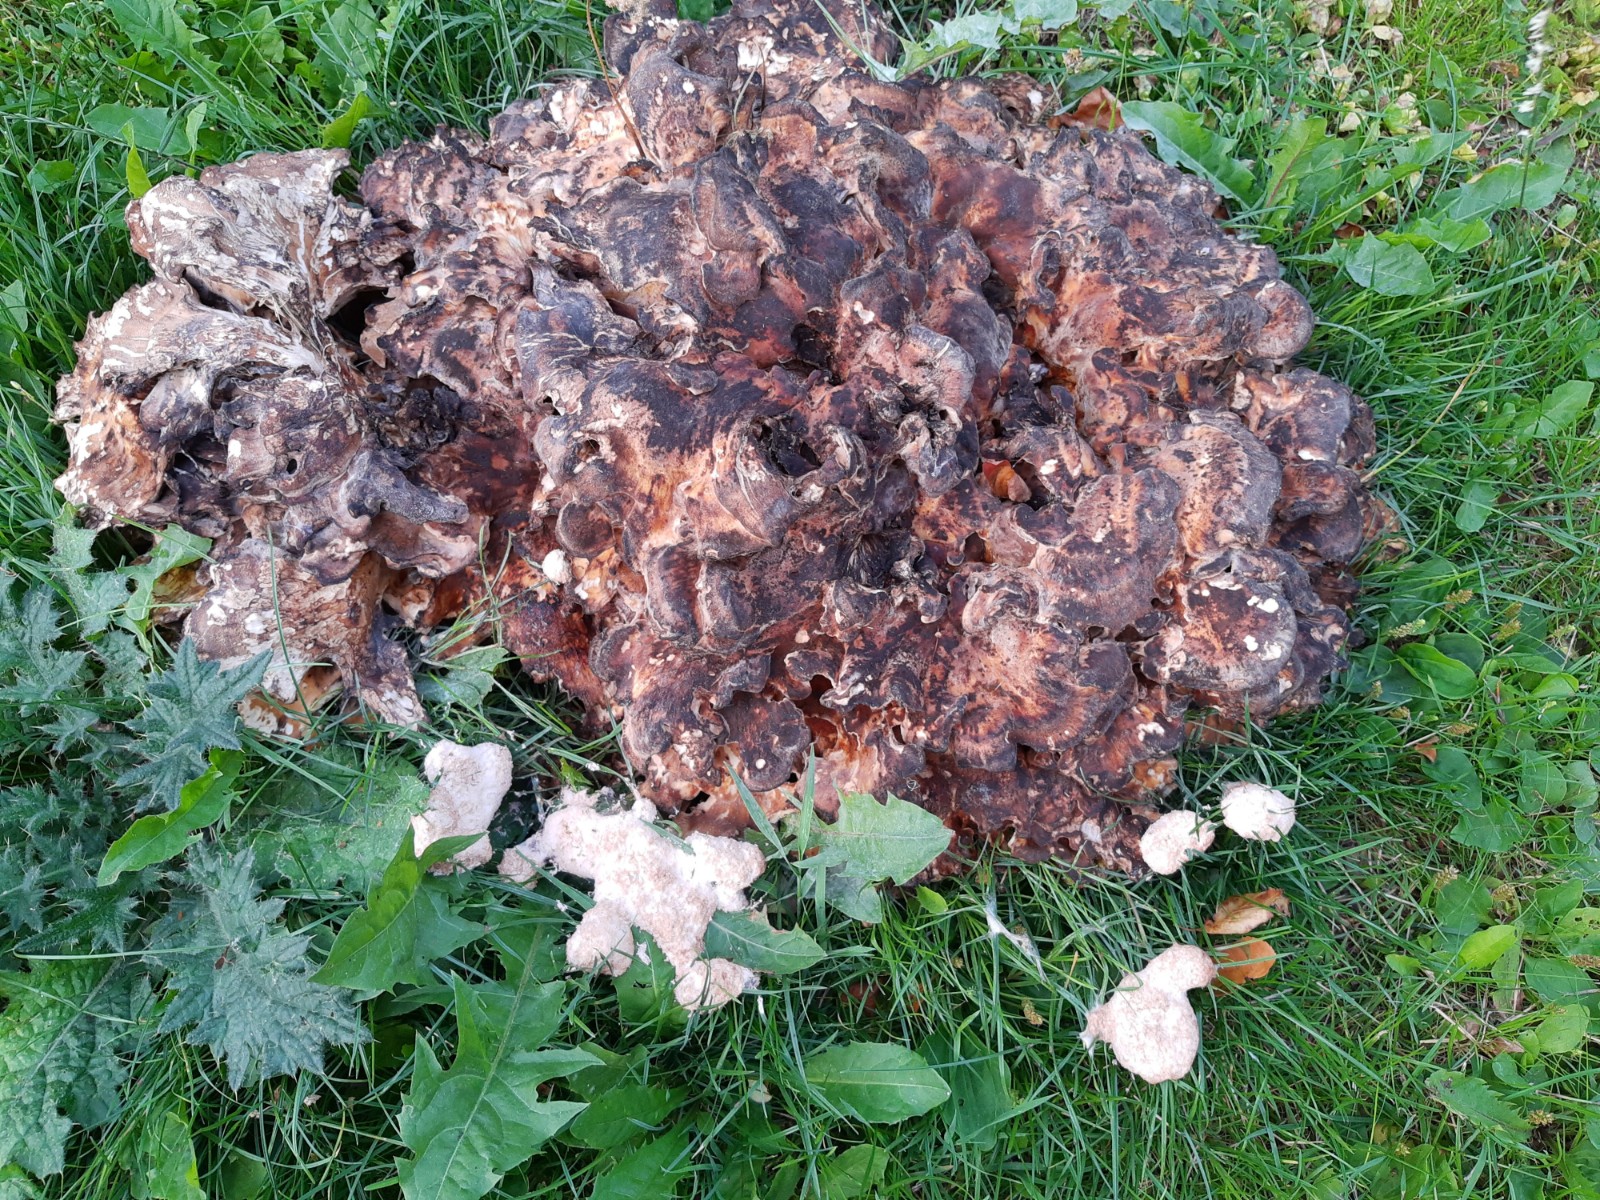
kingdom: Protozoa
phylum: Mycetozoa
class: Myxomycetes
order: Physarales
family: Physaraceae
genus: Fuligo
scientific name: Fuligo septica
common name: Dog vomit slime mold
